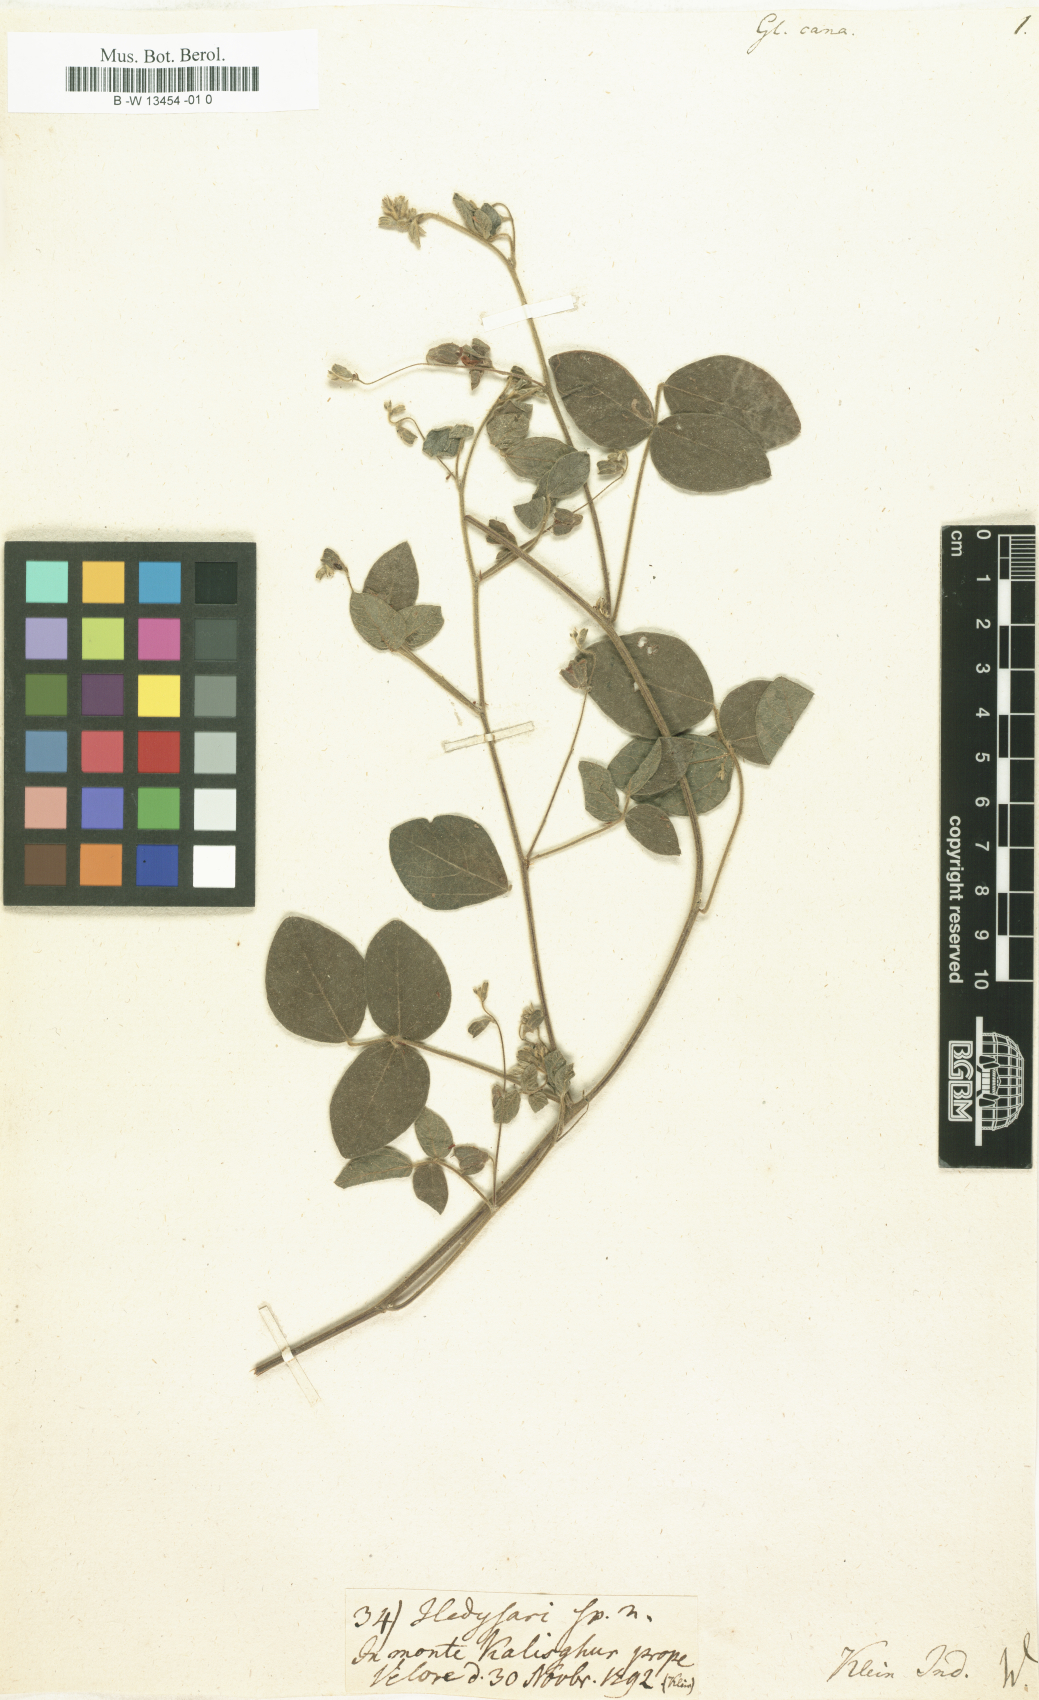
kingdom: Plantae
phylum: Tracheophyta
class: Magnoliopsida
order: Fabales
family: Fabaceae
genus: Rhynchosia
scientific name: Rhynchosia cana
